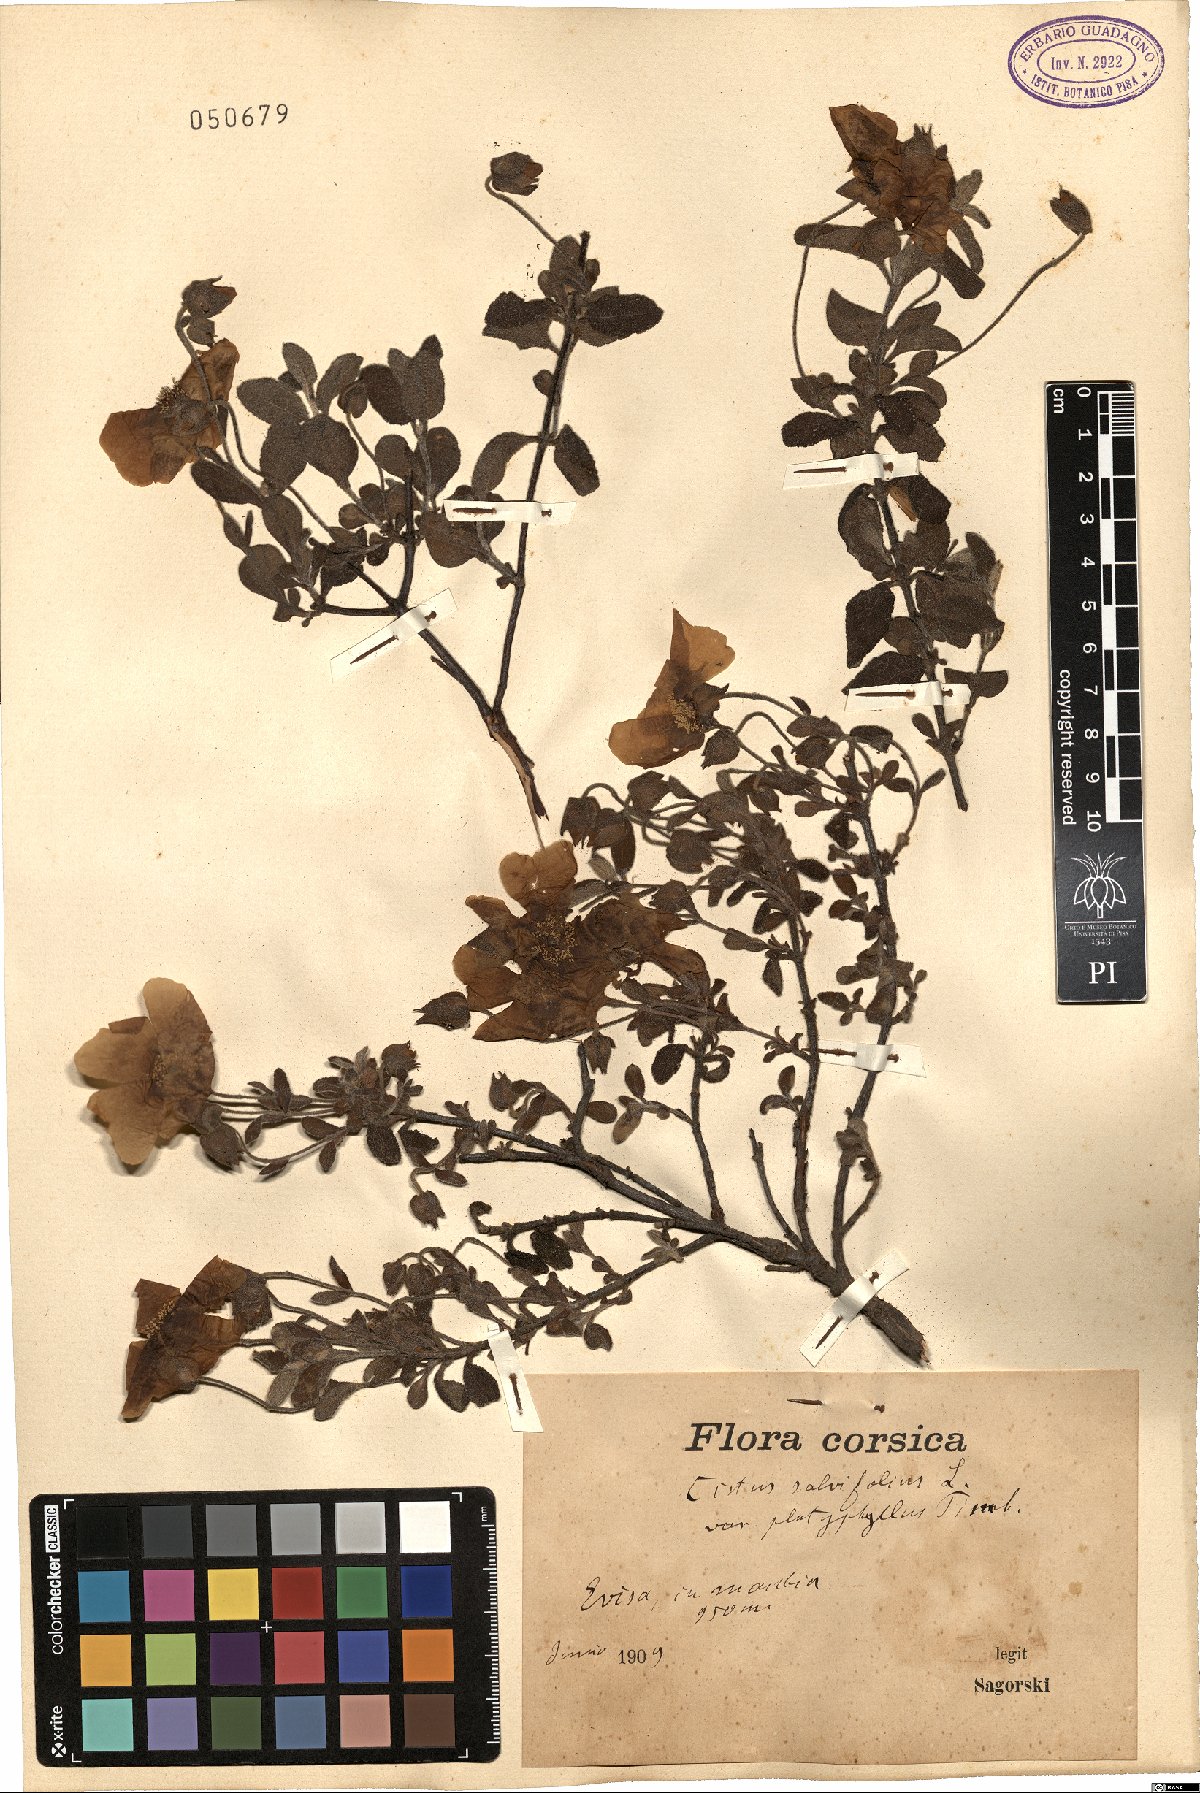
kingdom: Plantae
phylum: Tracheophyta
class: Magnoliopsida
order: Malvales
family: Cistaceae
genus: Cistus
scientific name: Cistus salviifolius
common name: Salvia cistus
